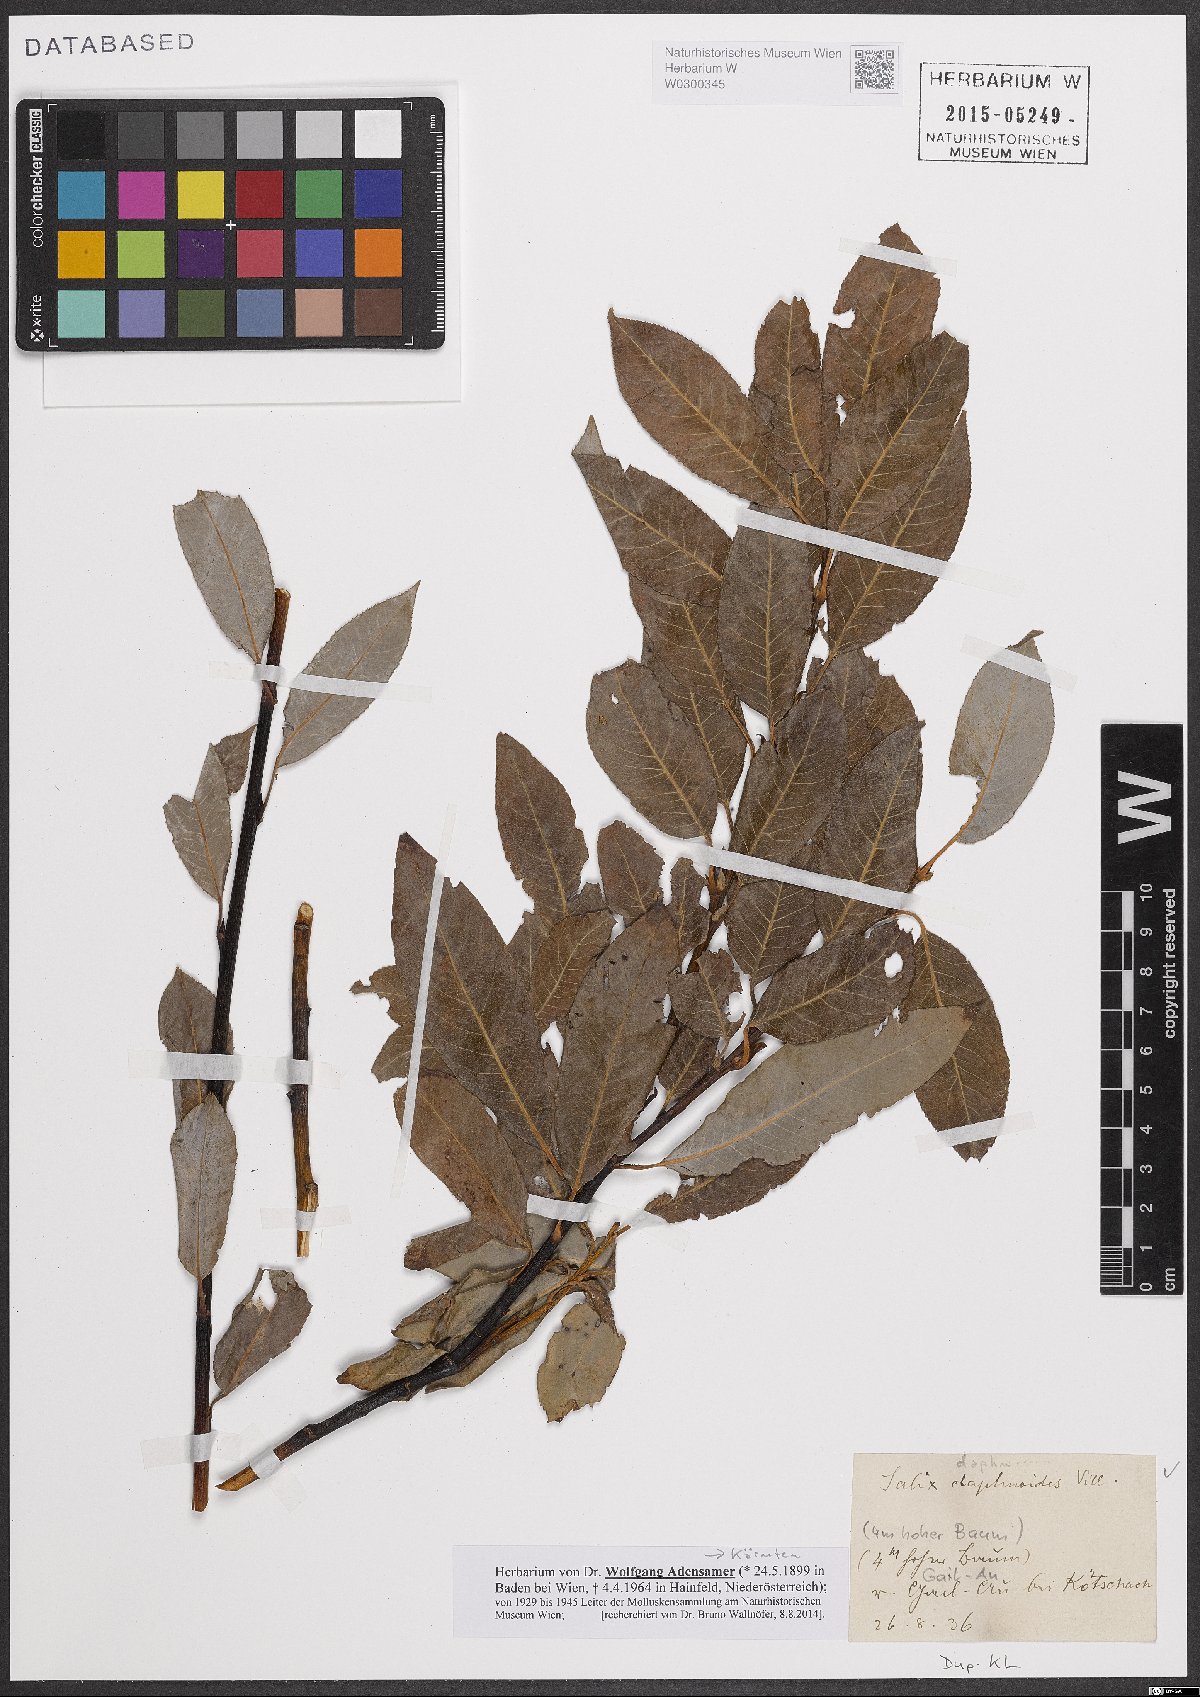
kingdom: Plantae
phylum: Tracheophyta
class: Magnoliopsida
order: Malpighiales
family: Salicaceae
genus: Salix
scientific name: Salix daphnoides
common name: European violet-willow
